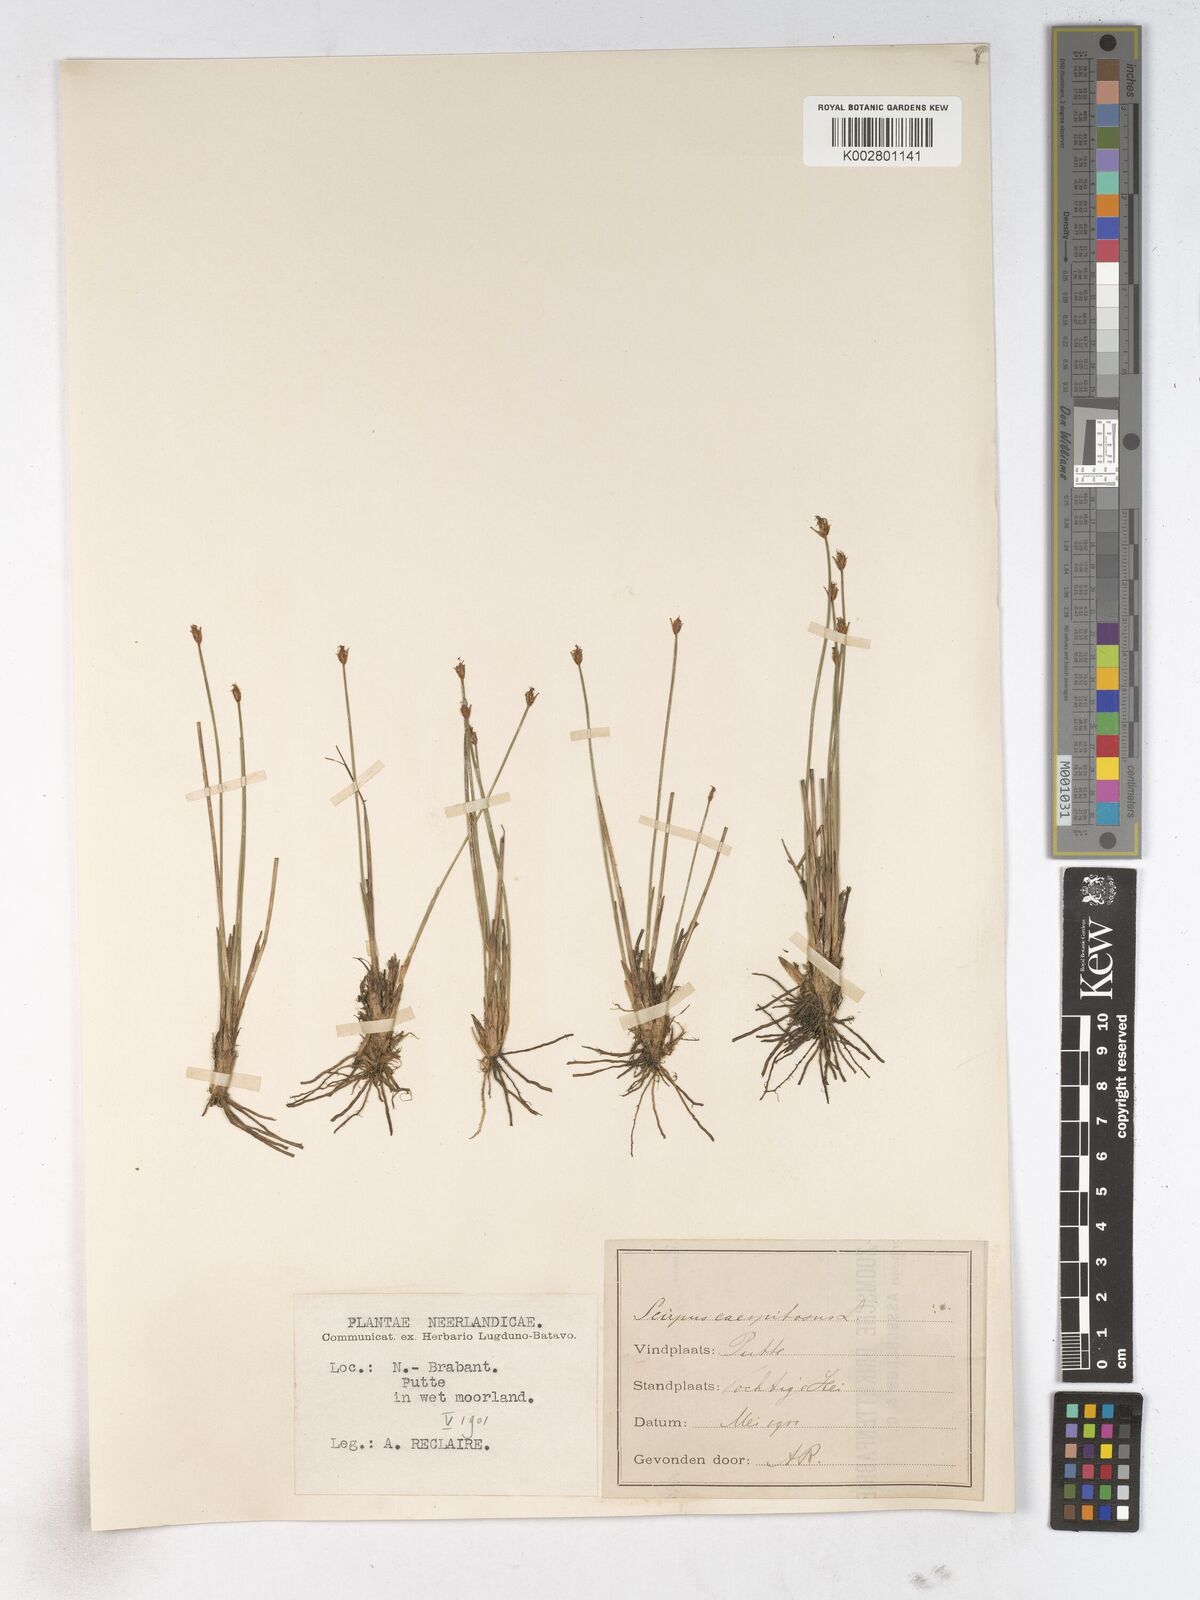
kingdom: Plantae
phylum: Tracheophyta
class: Liliopsida
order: Poales
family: Cyperaceae
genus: Trichophorum
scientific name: Trichophorum cespitosum
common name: Cespitose bulrush
